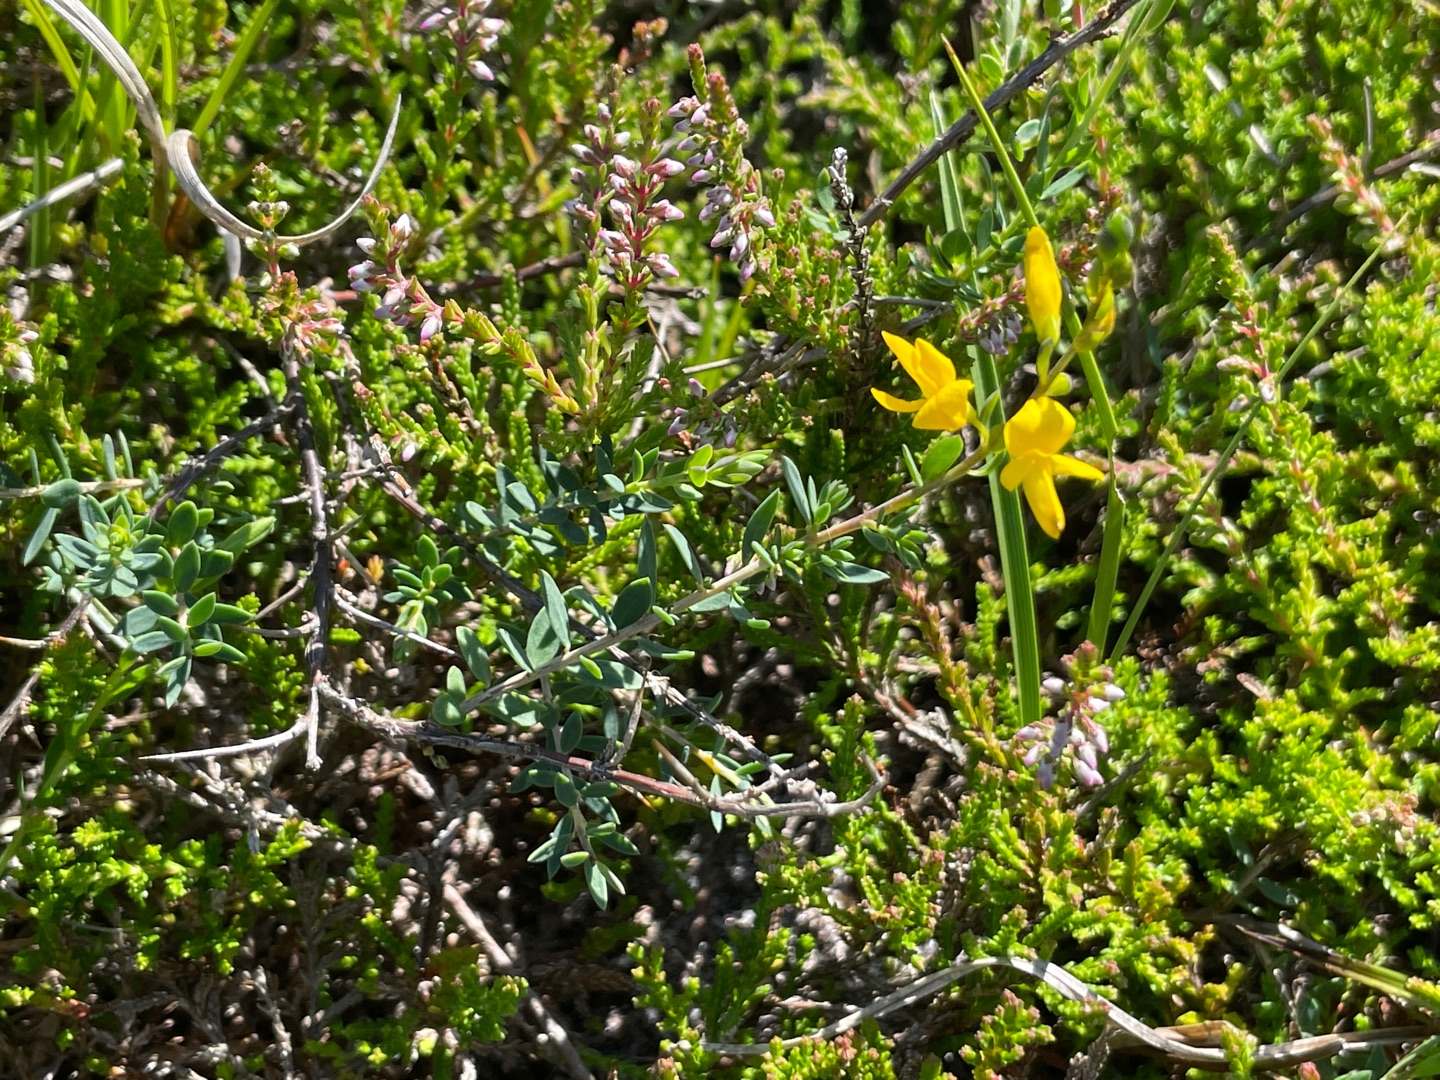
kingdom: Plantae
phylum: Tracheophyta
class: Magnoliopsida
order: Fabales
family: Fabaceae
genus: Genista
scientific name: Genista anglica
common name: Engelsk visse
